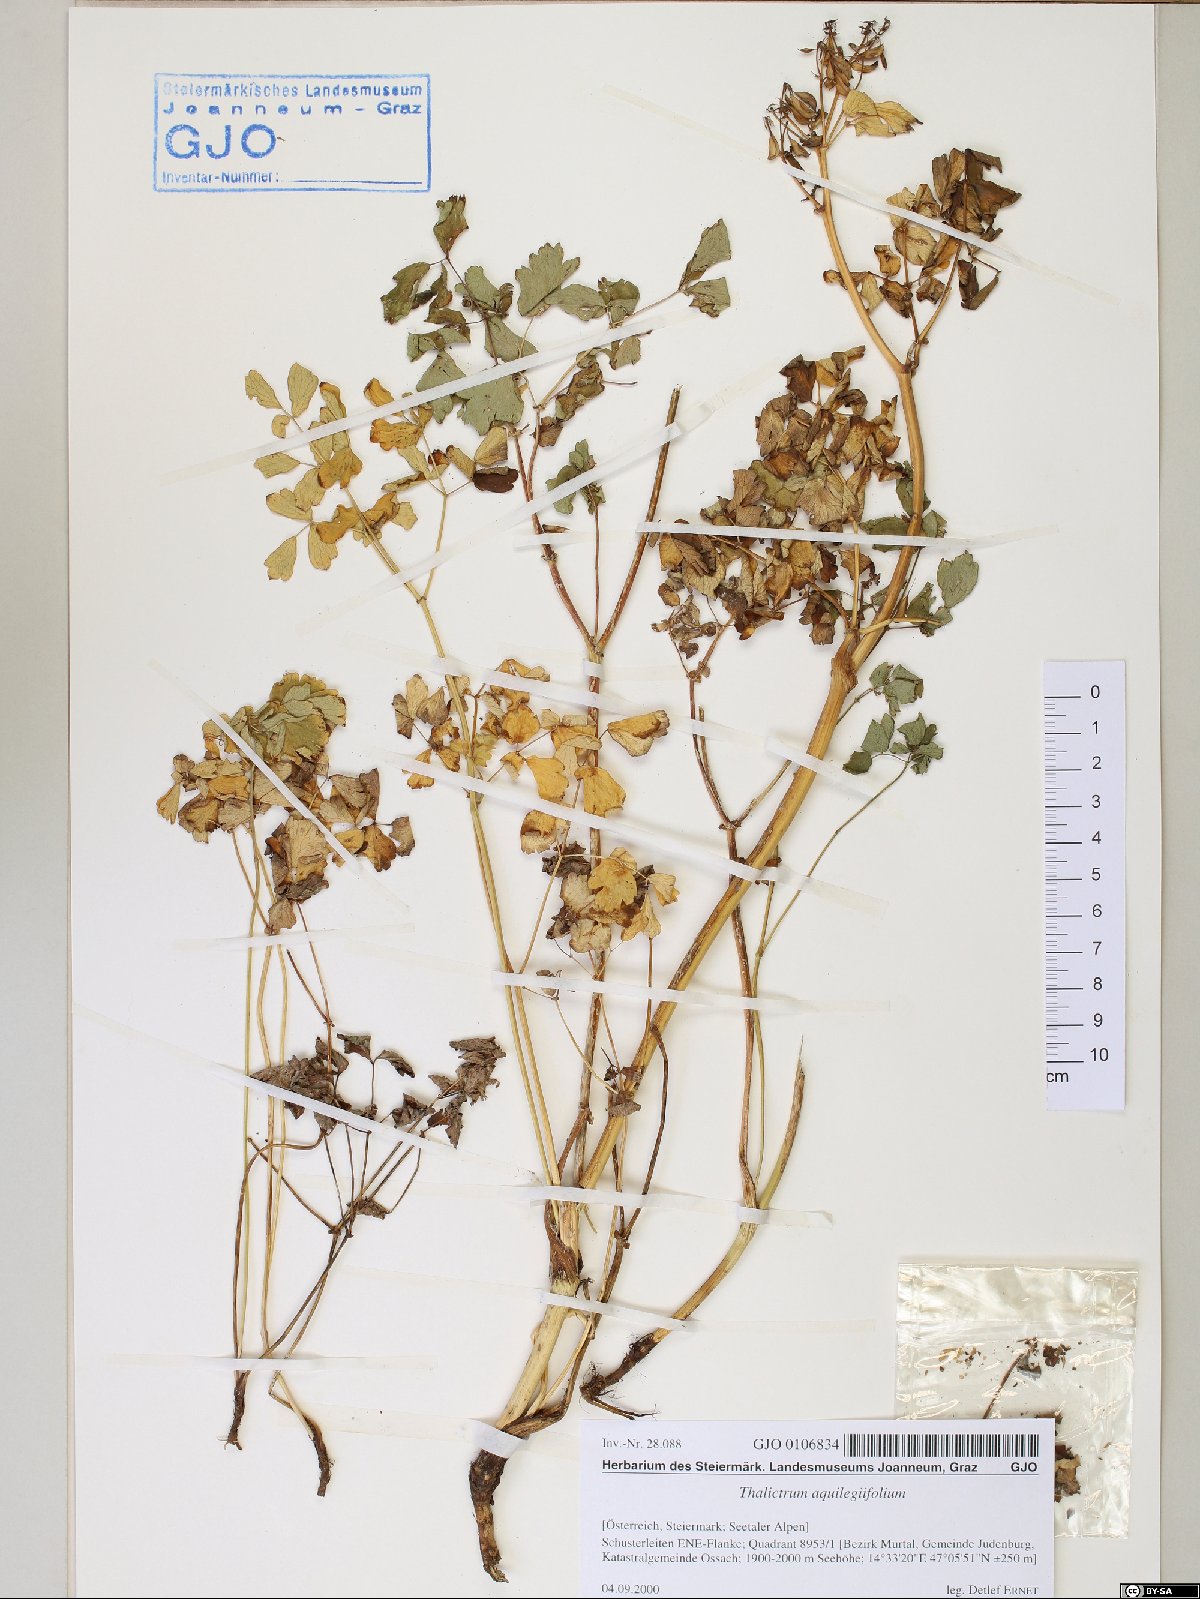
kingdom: Plantae
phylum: Tracheophyta
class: Magnoliopsida
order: Ranunculales
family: Ranunculaceae
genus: Thalictrum
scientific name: Thalictrum aquilegiifolium
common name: French meadow-rue
